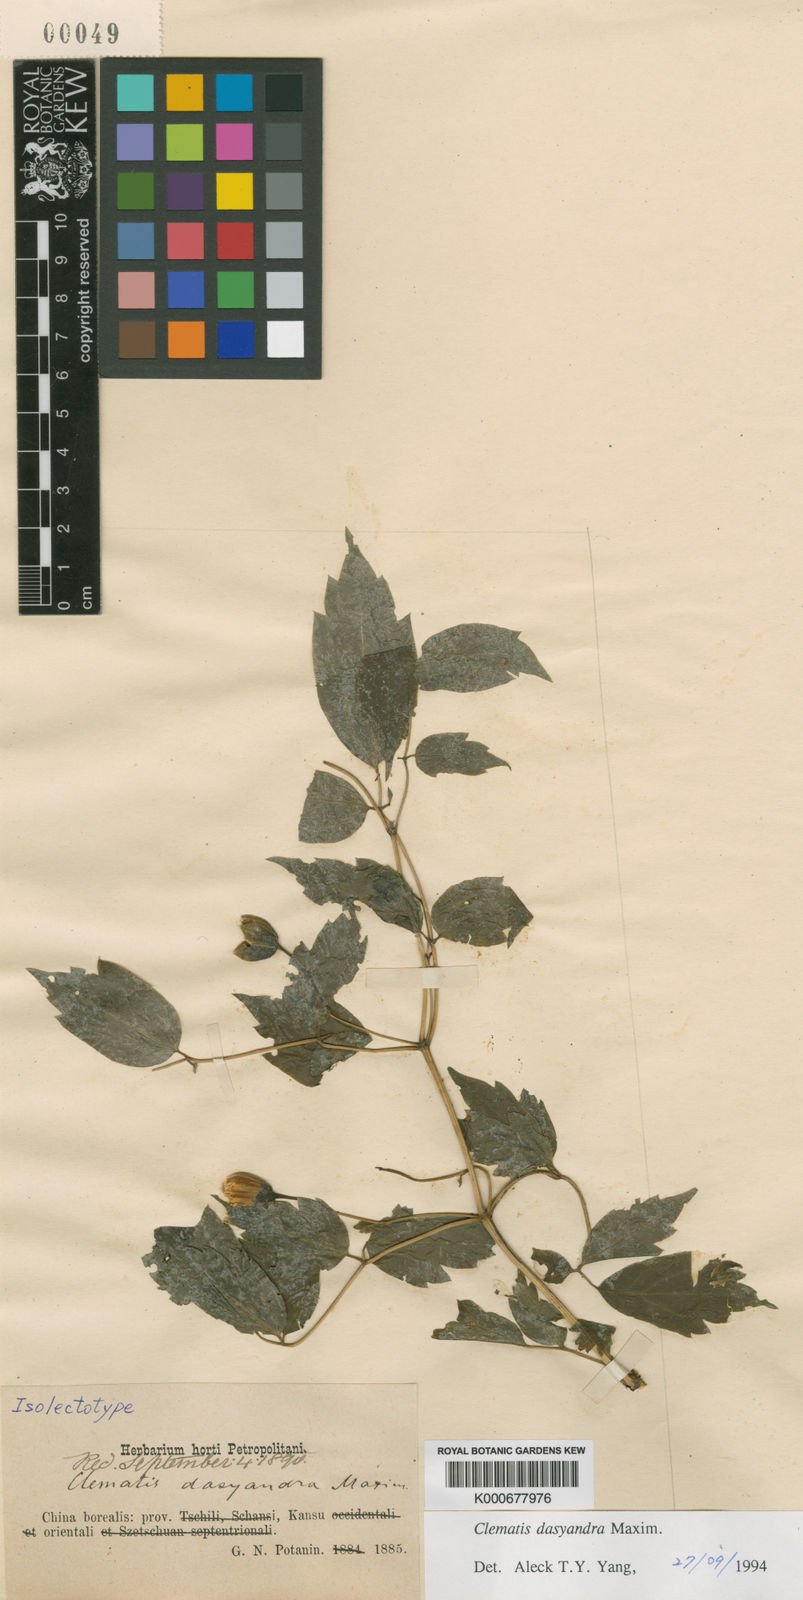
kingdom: Plantae
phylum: Tracheophyta
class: Magnoliopsida
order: Ranunculales
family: Ranunculaceae
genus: Clematis
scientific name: Clematis dasyandra
